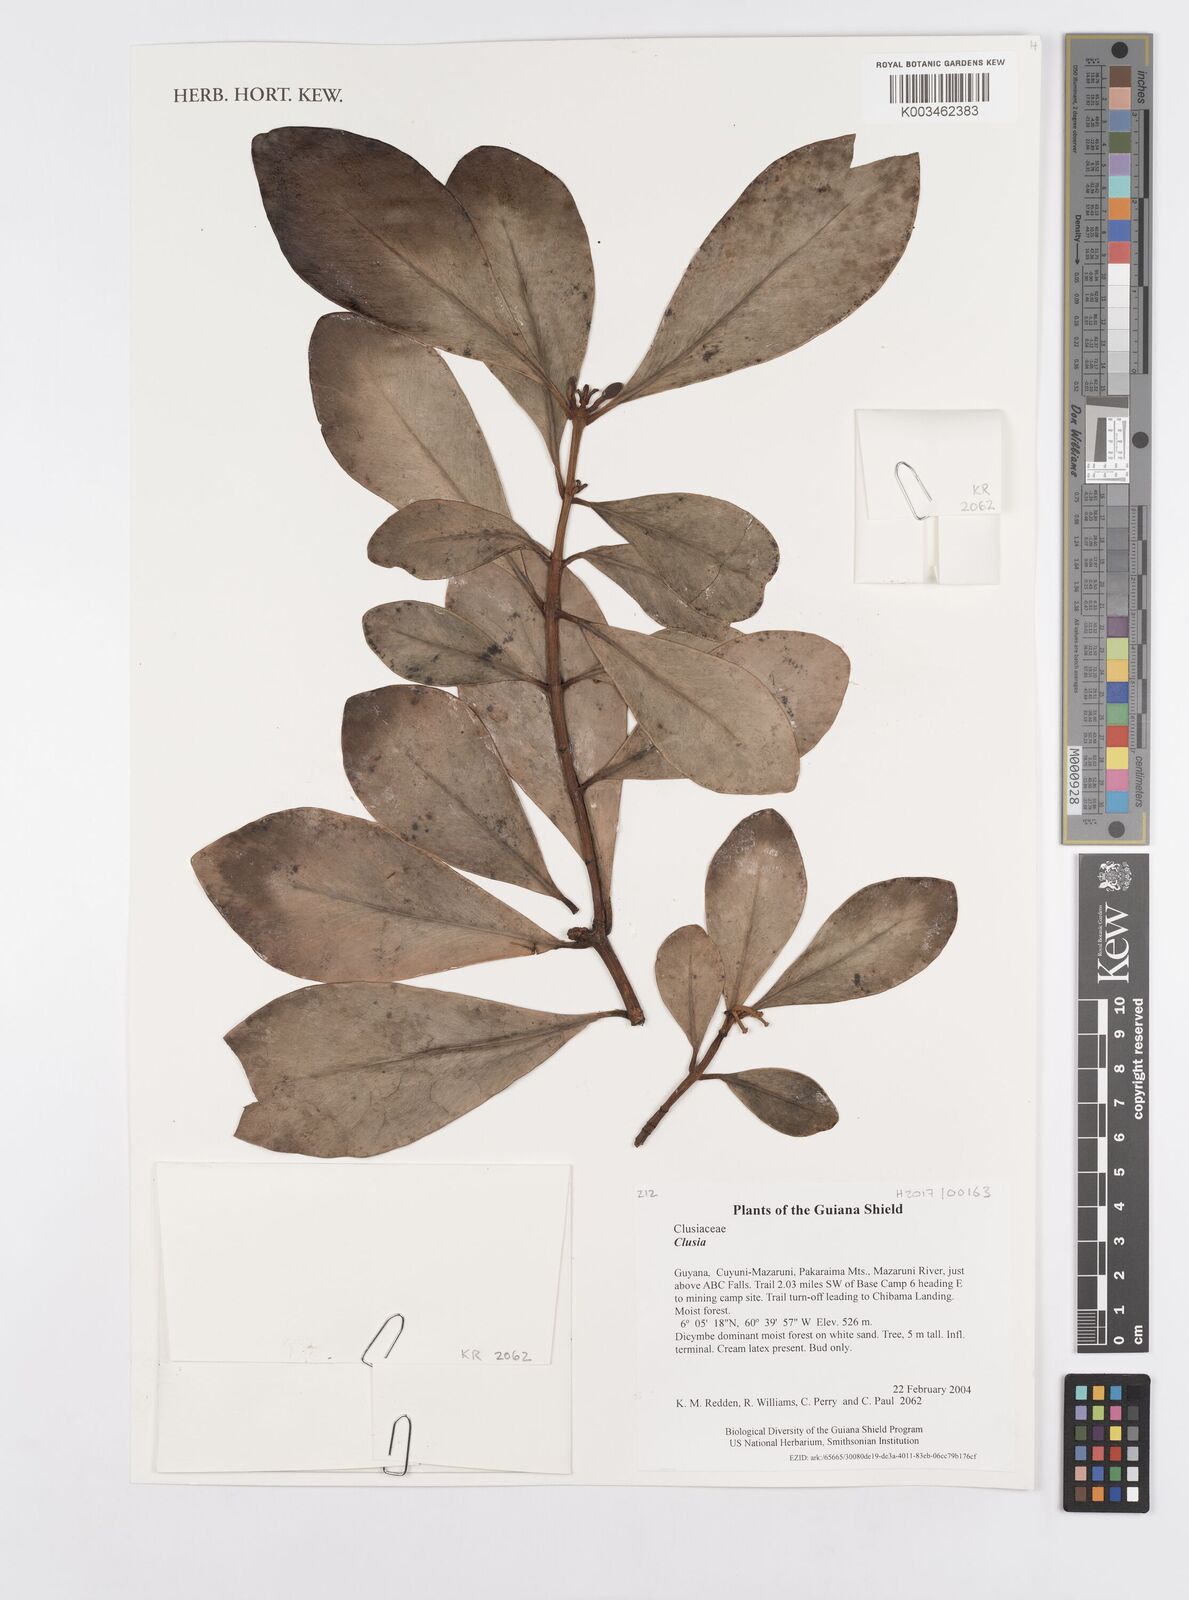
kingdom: Plantae
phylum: Tracheophyta
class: Magnoliopsida
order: Malpighiales
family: Clusiaceae
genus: Clusia
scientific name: Clusia
